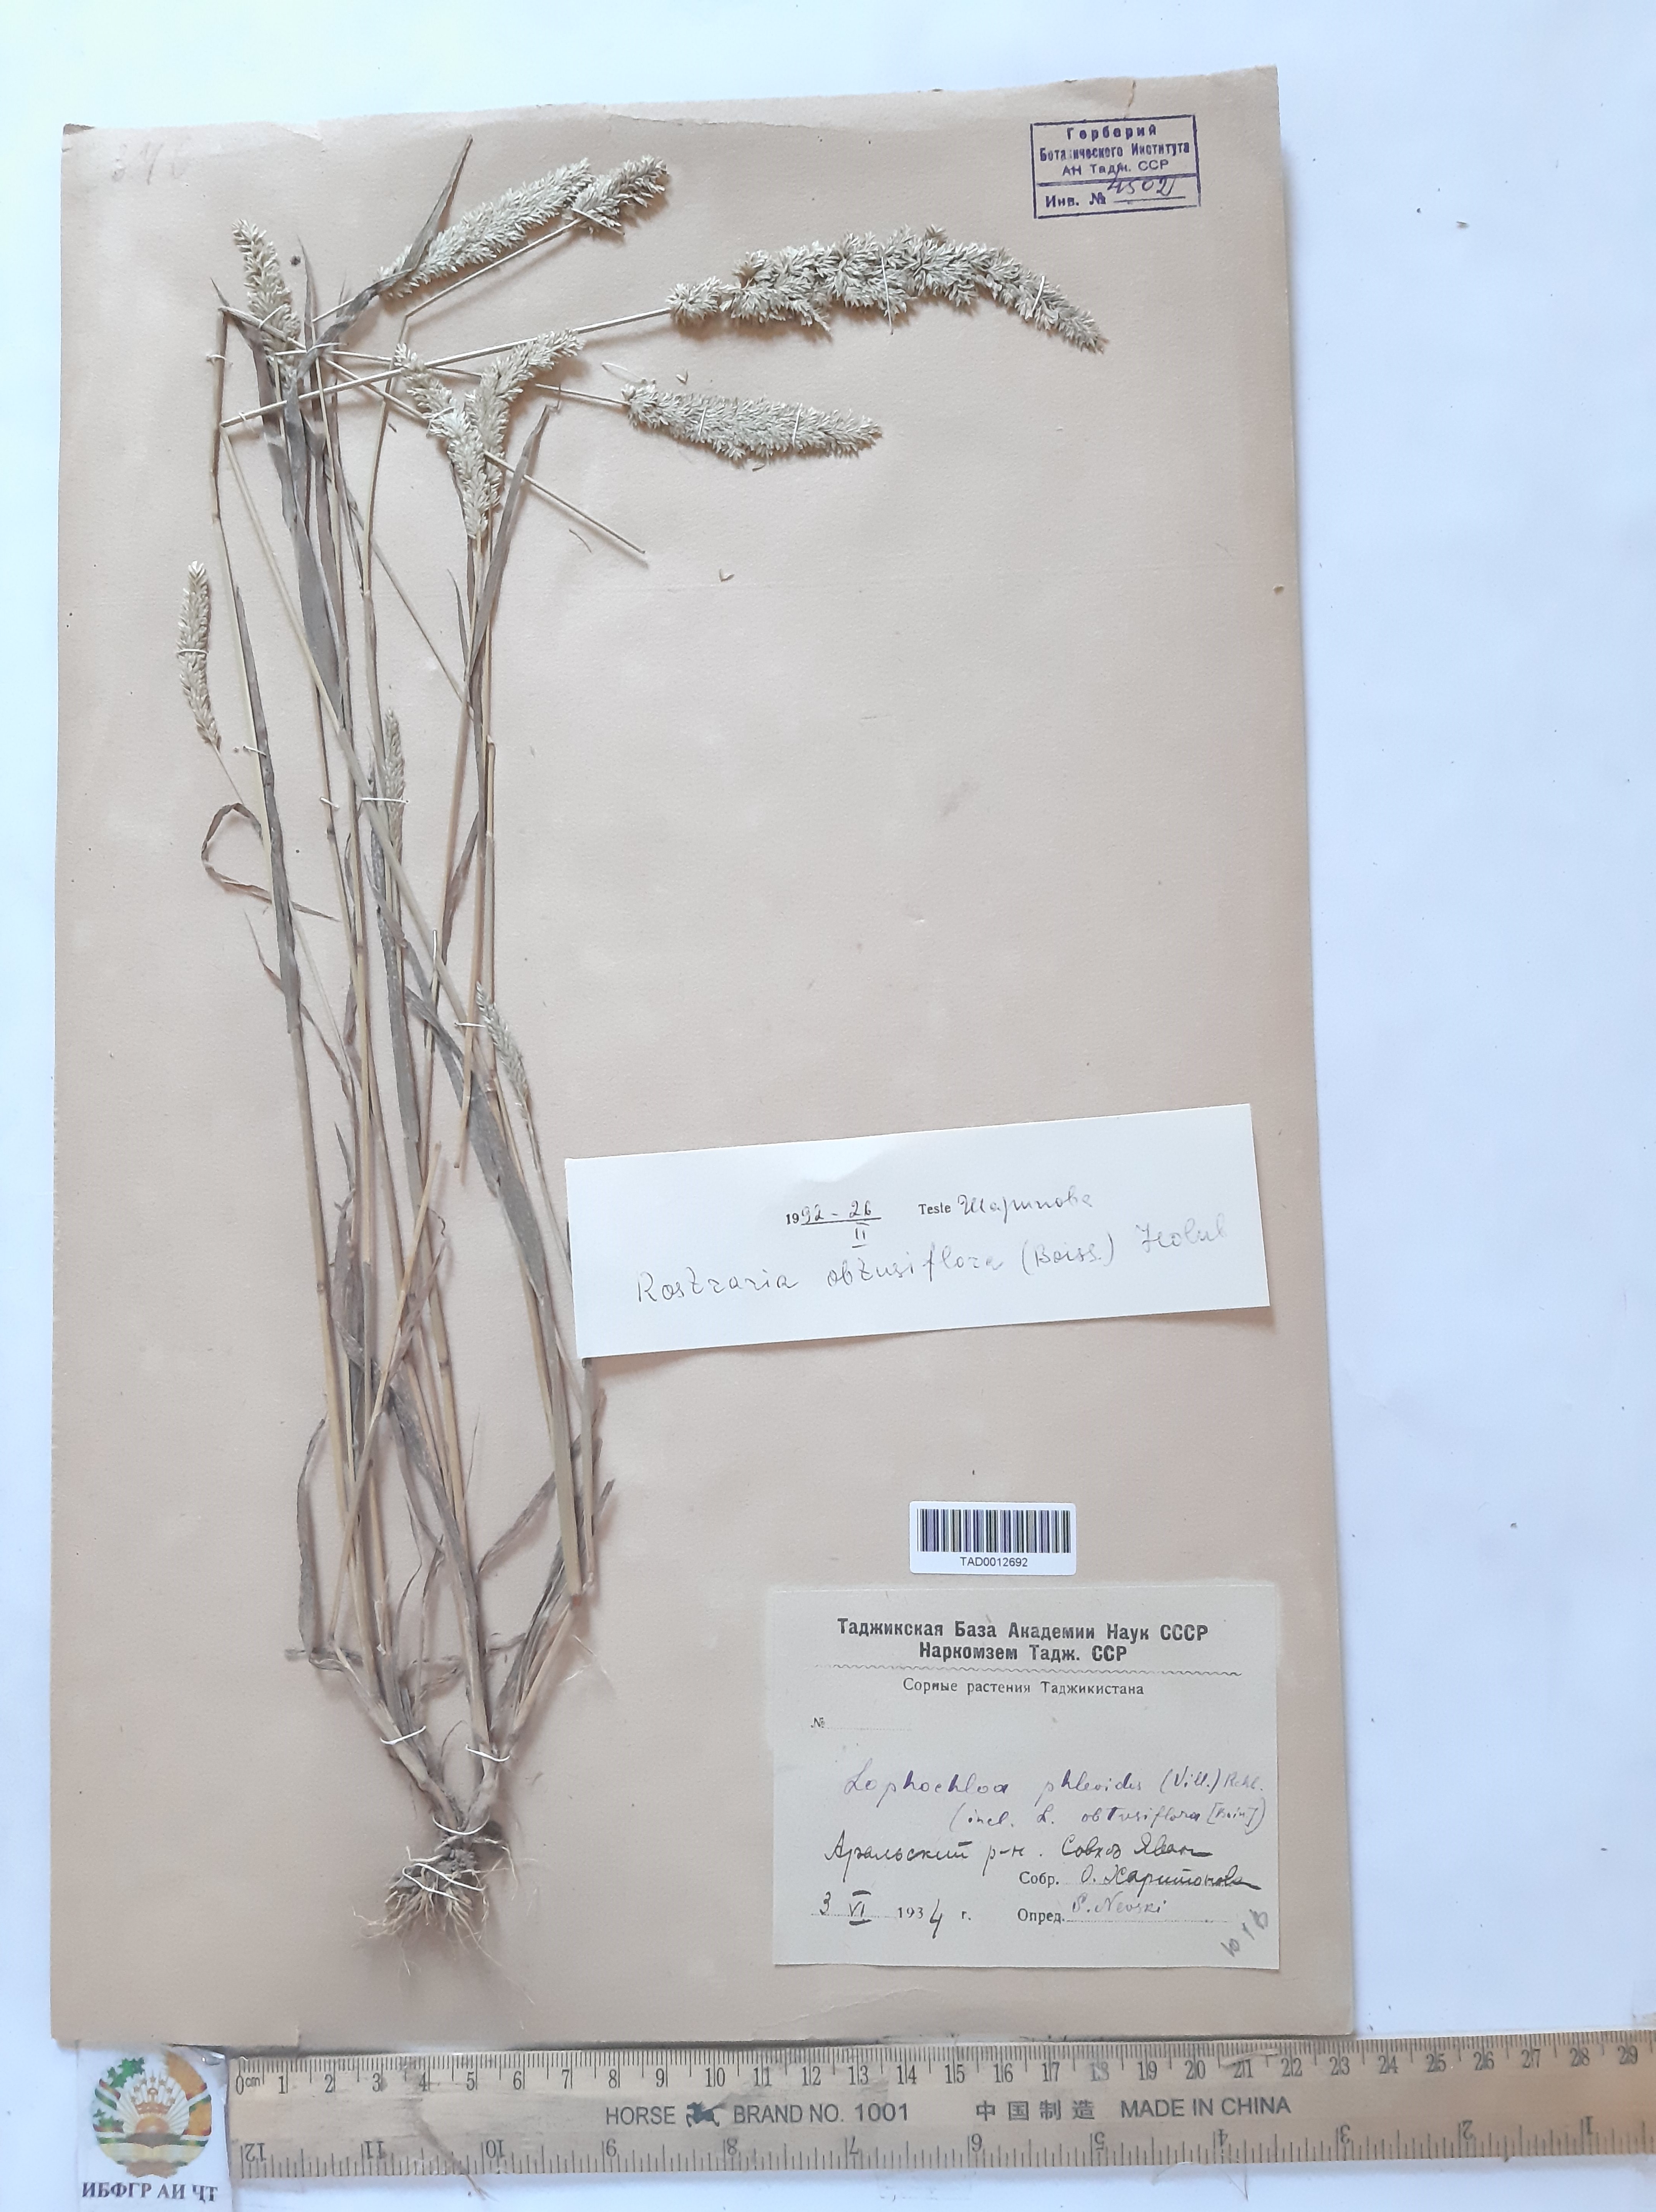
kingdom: Plantae
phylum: Tracheophyta
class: Liliopsida
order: Poales
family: Poaceae
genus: Rostraria
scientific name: Rostraria obtusiflora
